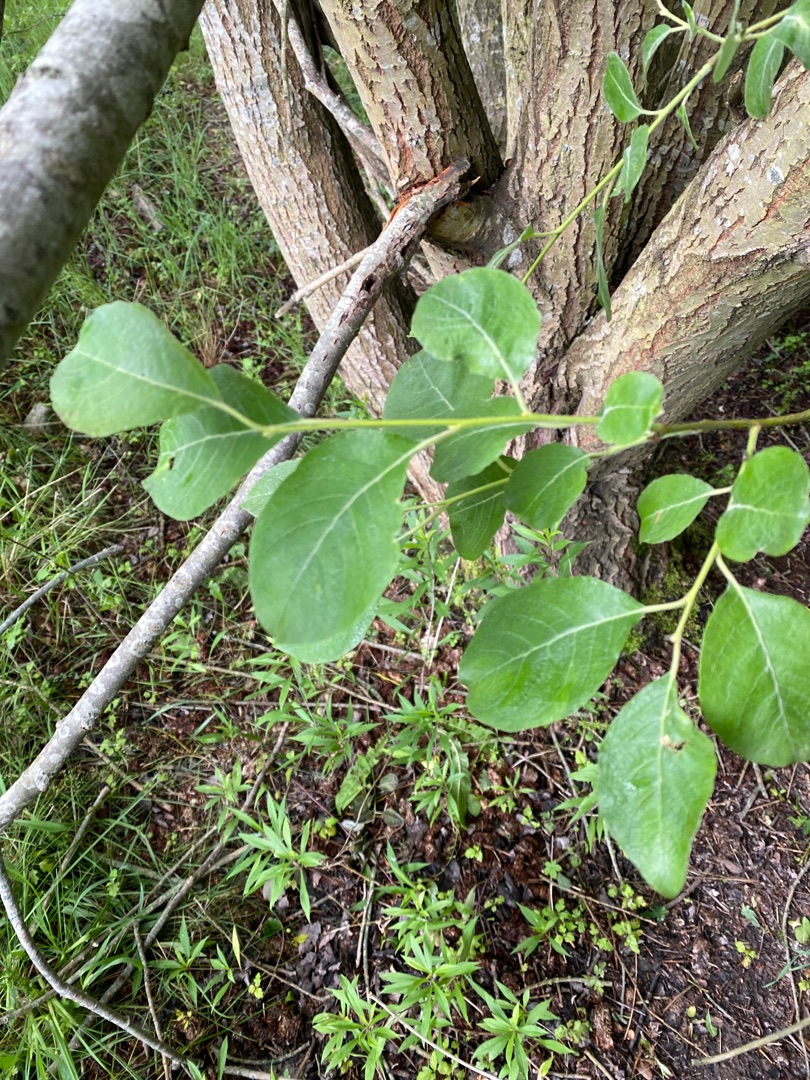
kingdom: Plantae
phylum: Tracheophyta
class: Magnoliopsida
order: Malpighiales
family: Salicaceae
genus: Salix
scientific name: Salix caprea
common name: Selje-pil
